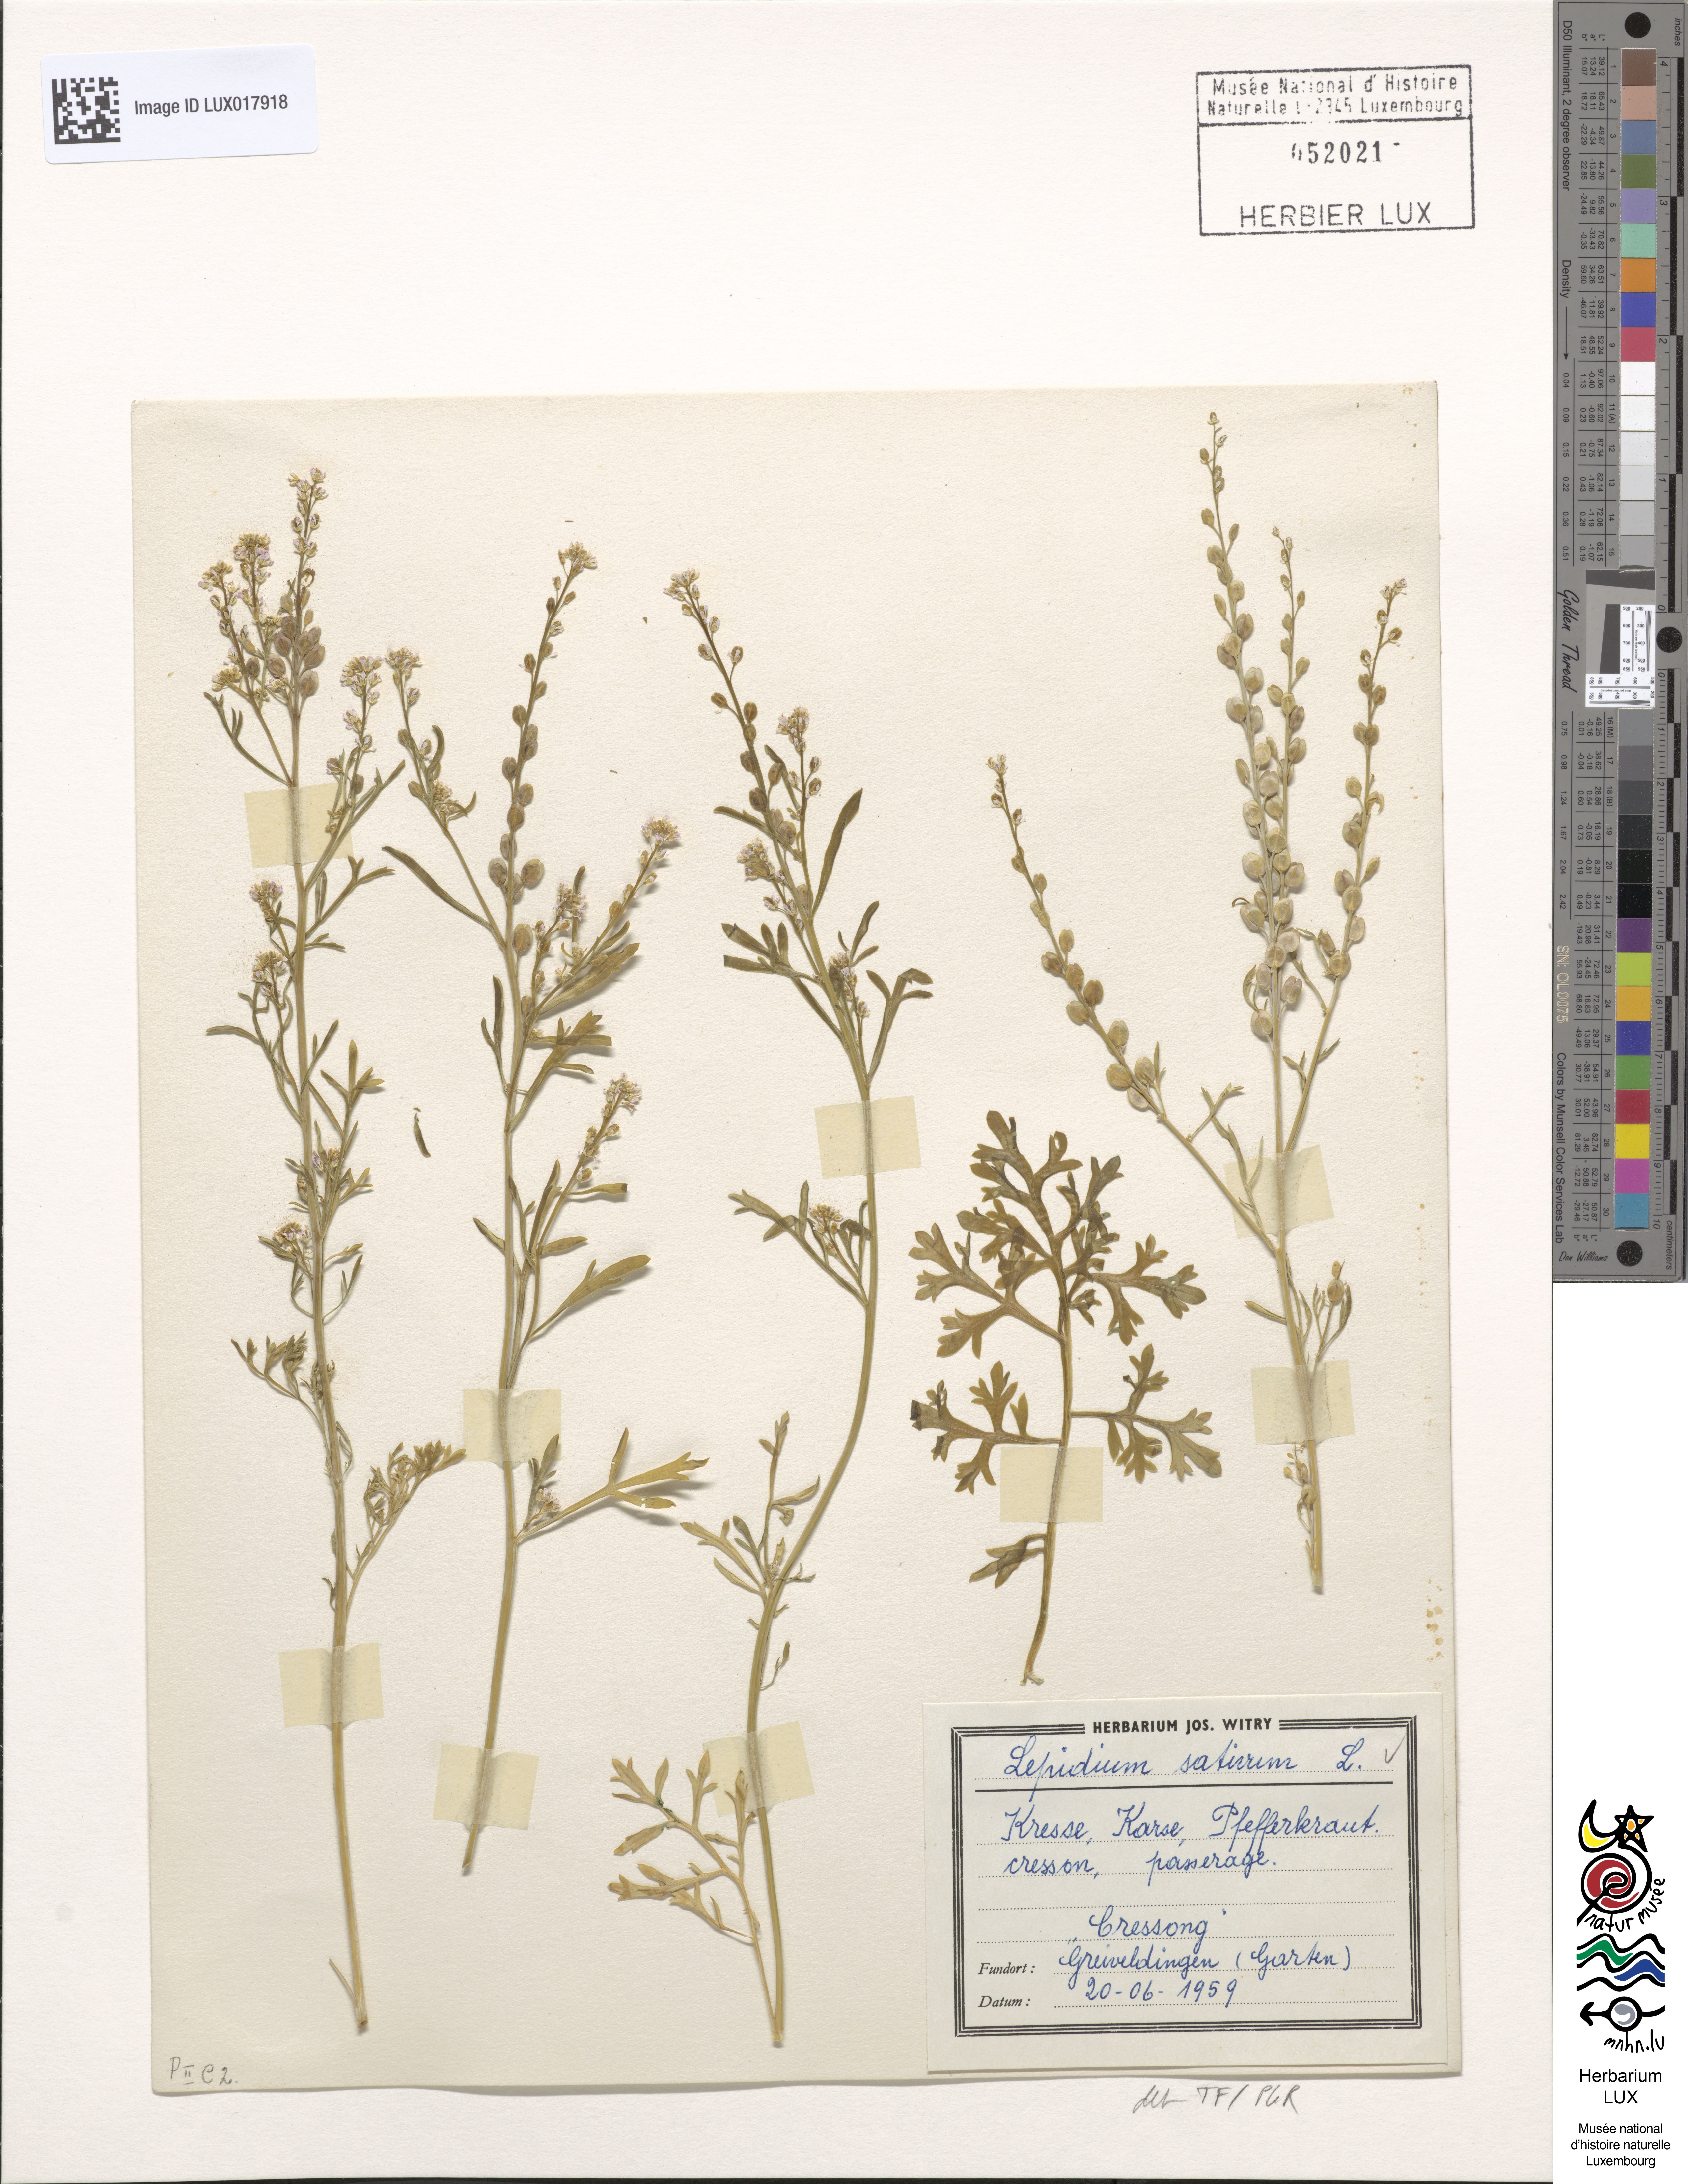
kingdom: Plantae
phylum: Tracheophyta
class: Magnoliopsida
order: Brassicales
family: Brassicaceae
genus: Lepidium
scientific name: Lepidium sativum
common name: Garden cress
